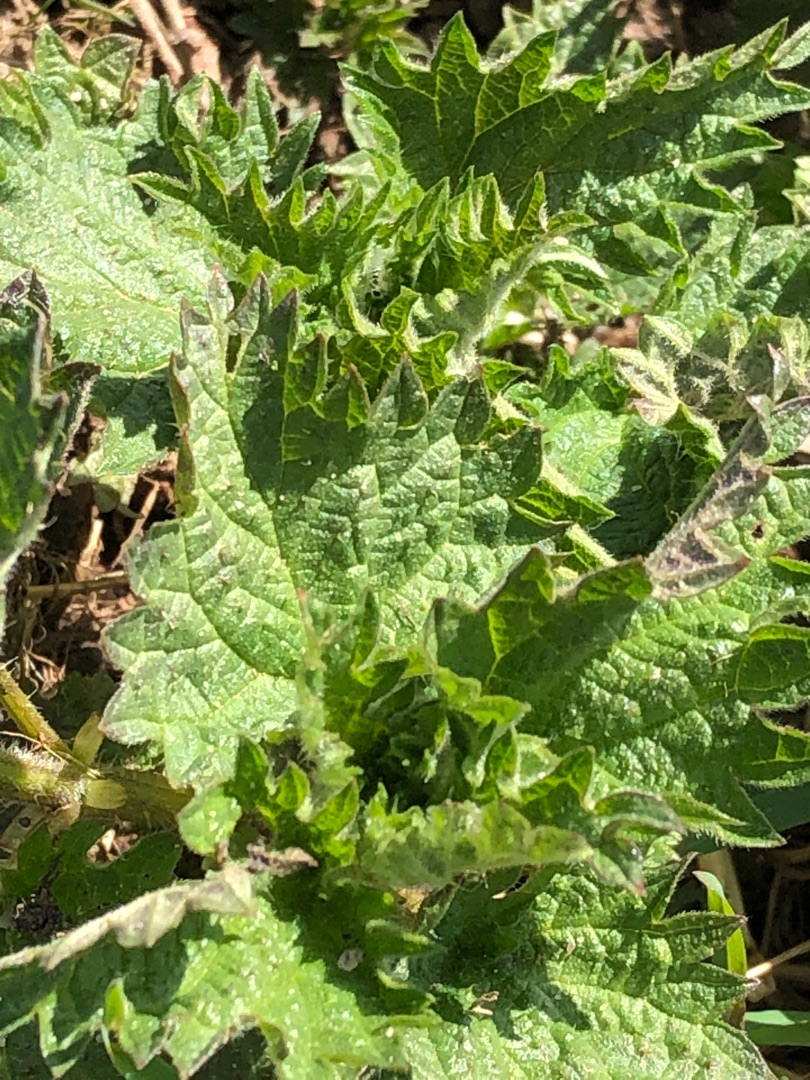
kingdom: Plantae
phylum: Tracheophyta
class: Magnoliopsida
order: Rosales
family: Urticaceae
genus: Urtica
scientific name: Urtica dioica
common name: Stor nælde
